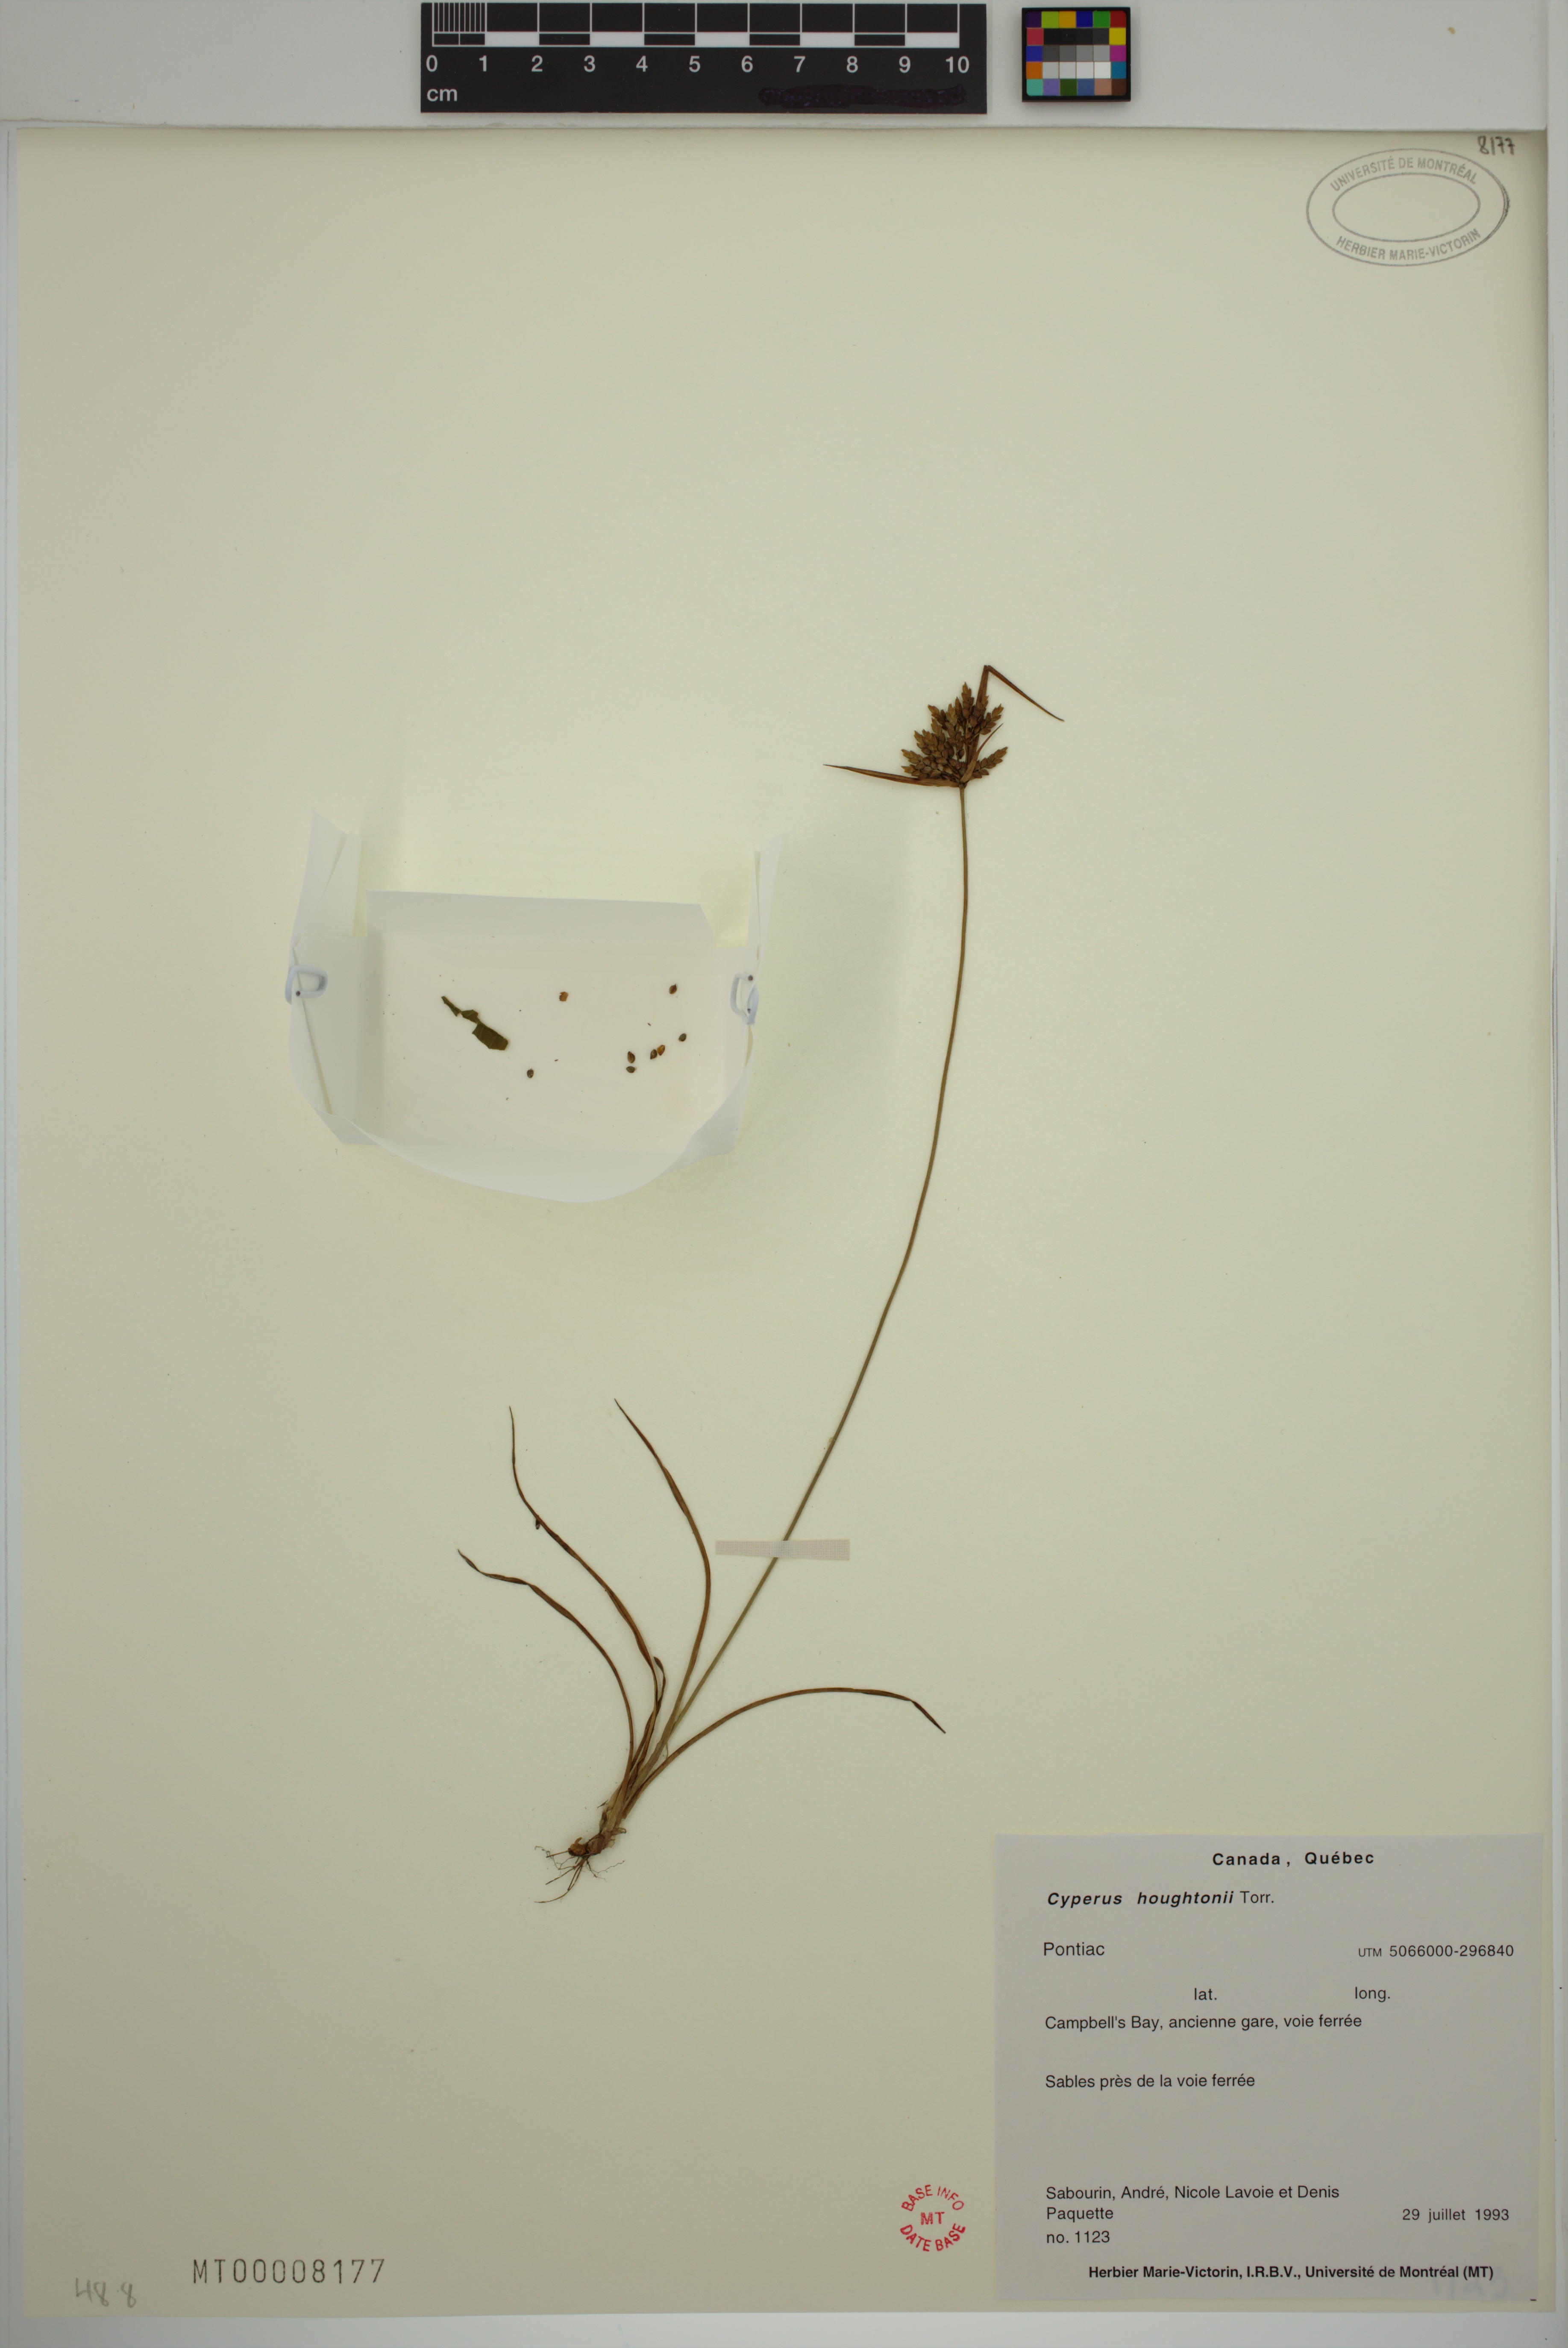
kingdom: Plantae
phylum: Tracheophyta
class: Liliopsida
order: Poales
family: Cyperaceae
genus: Cyperus
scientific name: Cyperus houghtonii
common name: Houghton's cyperus
